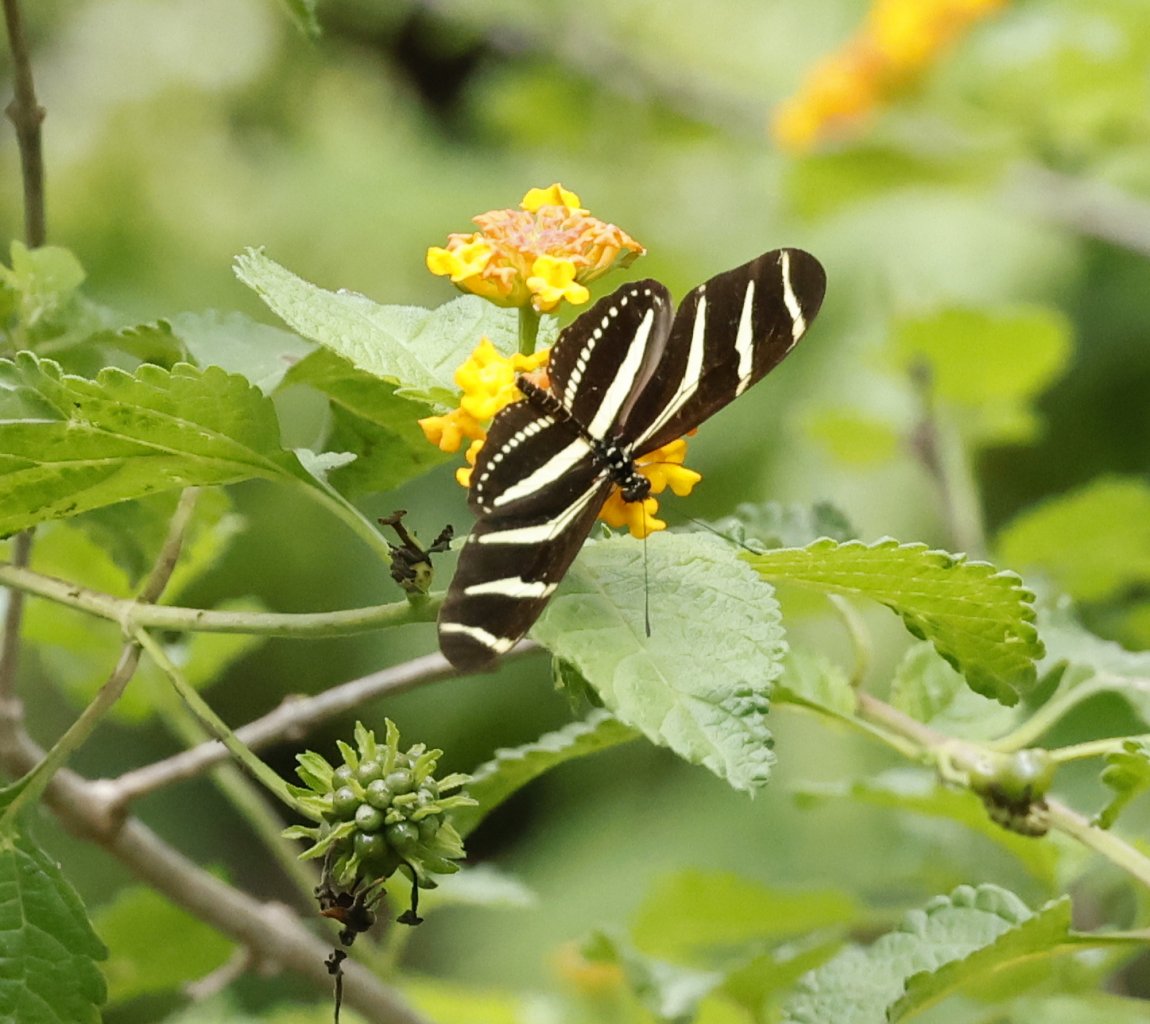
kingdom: Animalia
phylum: Arthropoda
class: Insecta
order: Lepidoptera
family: Nymphalidae
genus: Heliconius
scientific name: Heliconius charithonia
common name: Zebra Longwing
